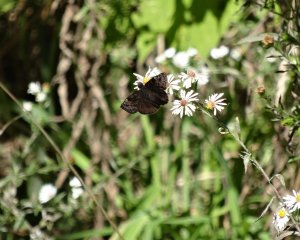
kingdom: Animalia
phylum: Arthropoda
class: Insecta
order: Lepidoptera
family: Hesperiidae
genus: Gesta
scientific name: Gesta
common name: Wild Indigo Duskywing
